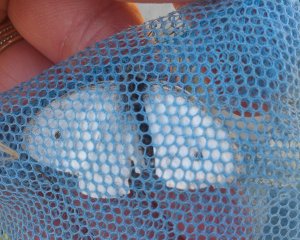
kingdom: Animalia
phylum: Arthropoda
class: Insecta
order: Lepidoptera
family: Pieridae
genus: Pieris
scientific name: Pieris rapae
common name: Cabbage White
